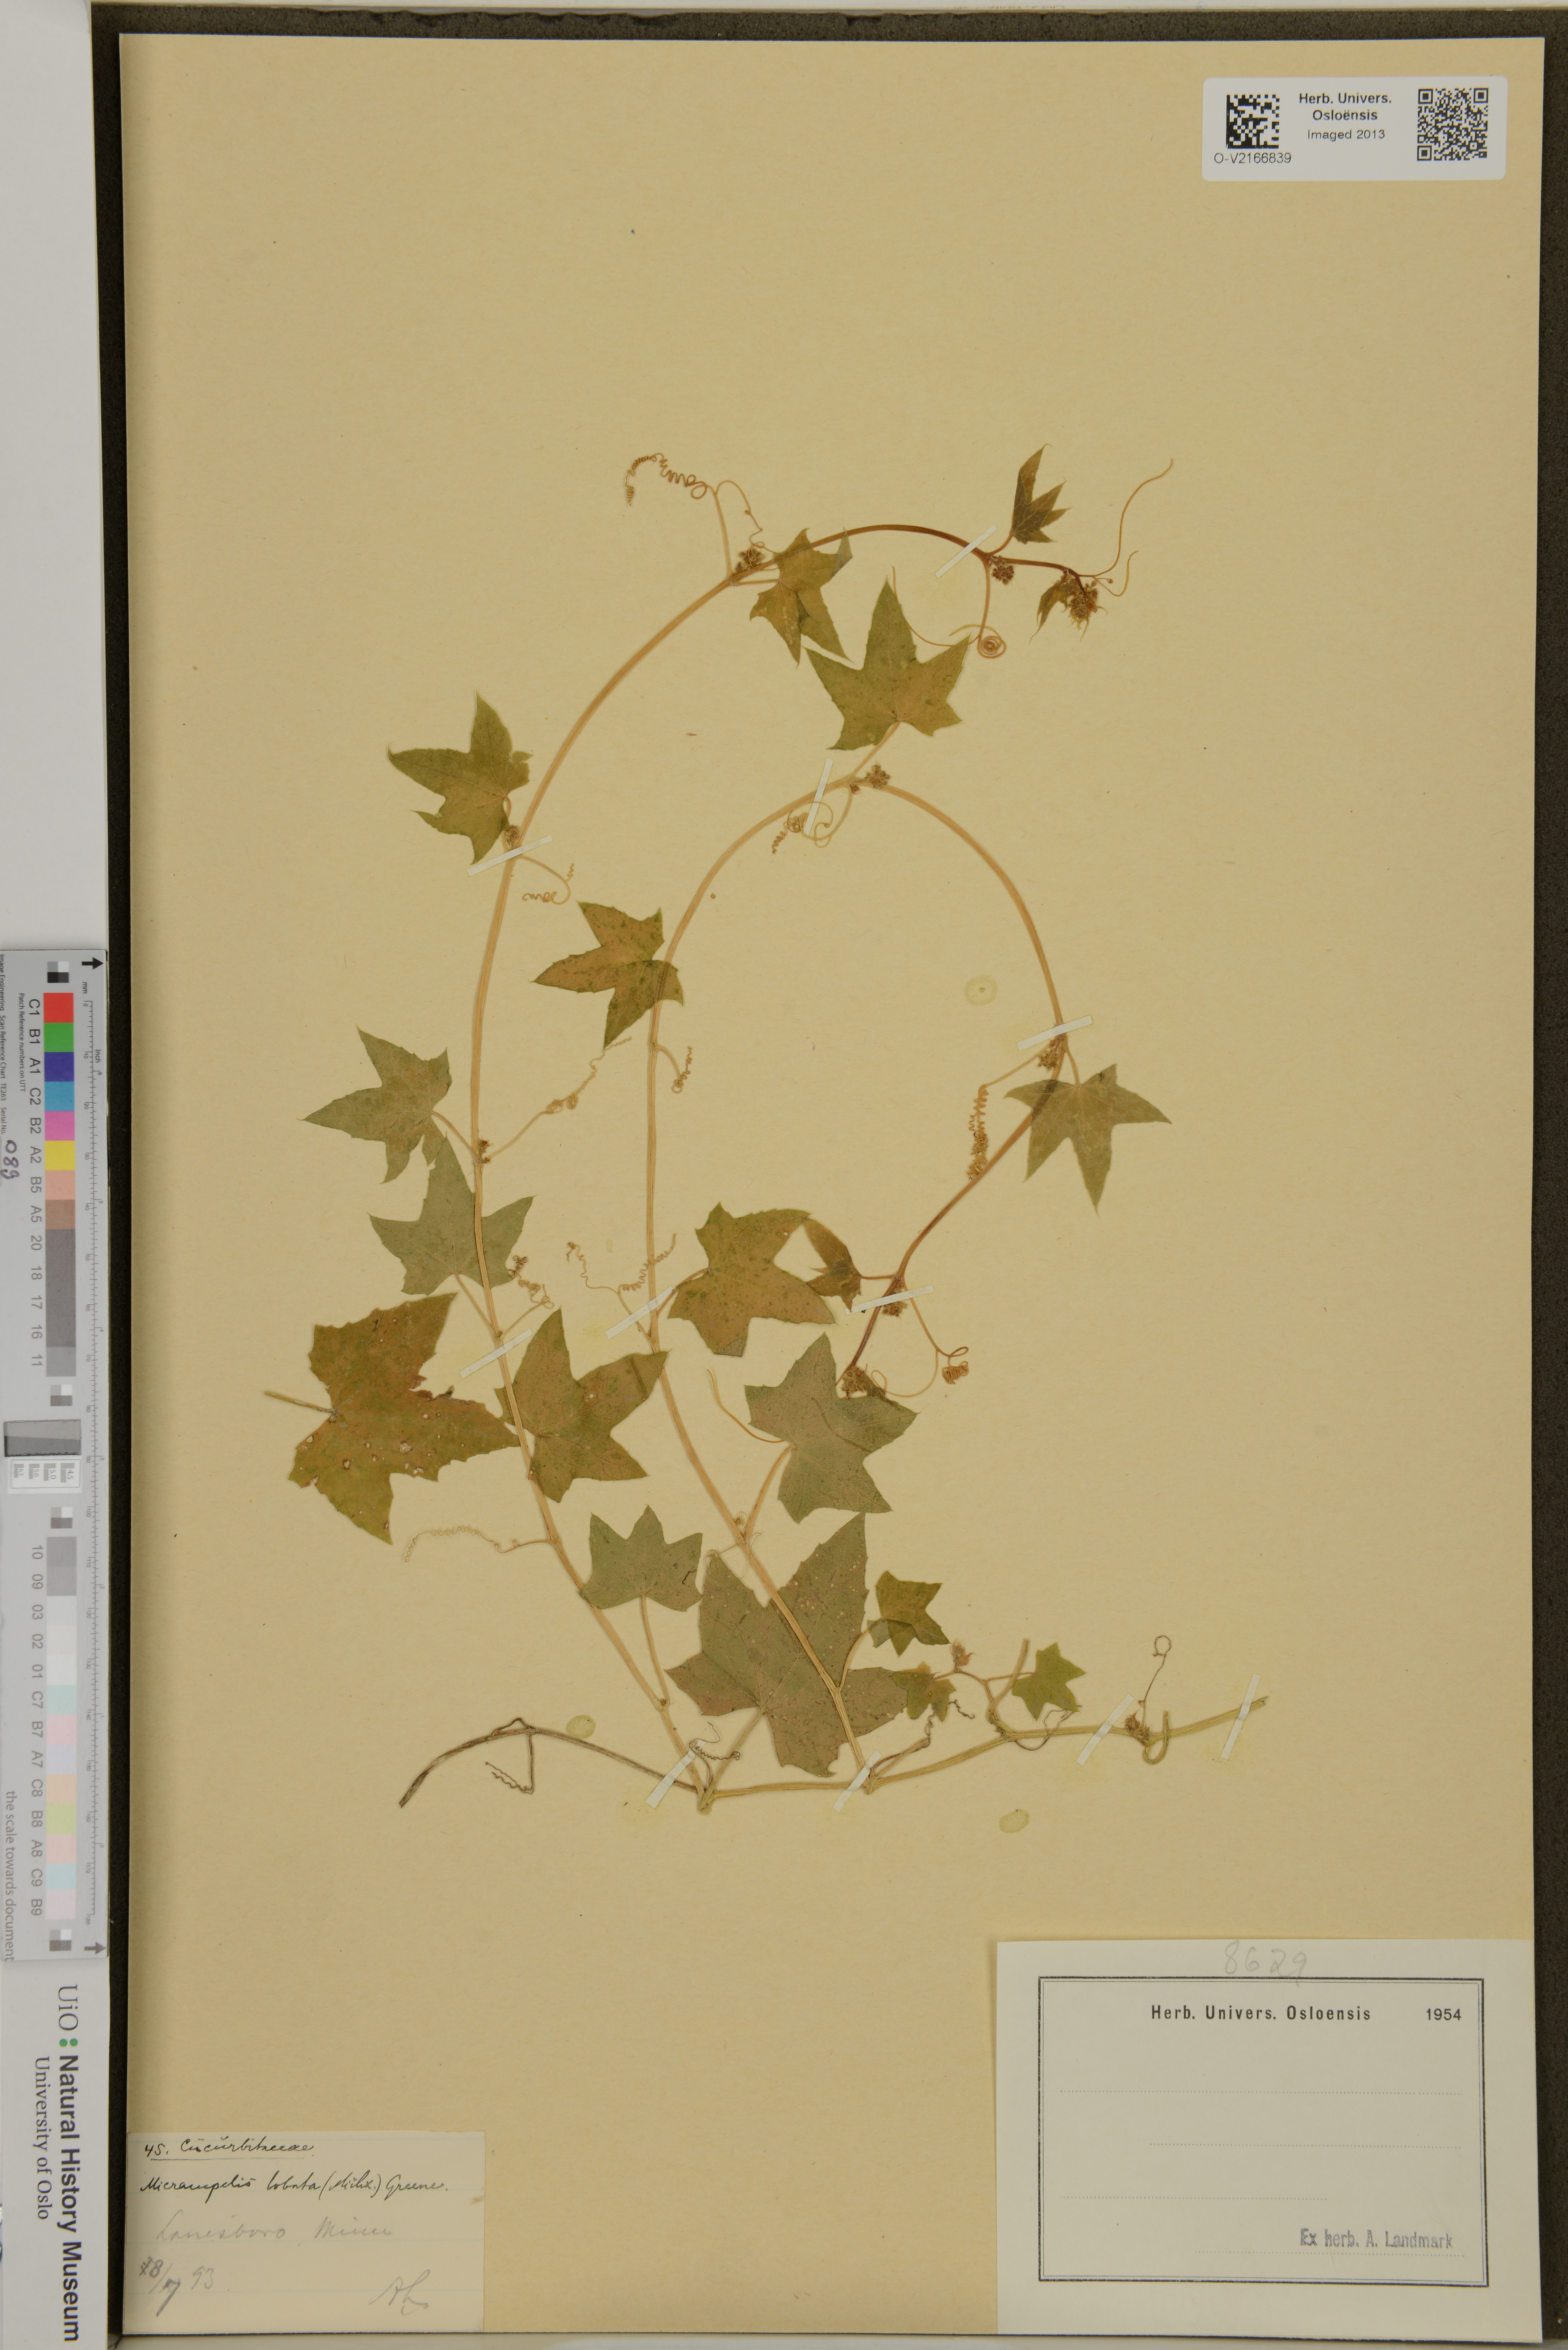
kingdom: Plantae
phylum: Tracheophyta
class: Magnoliopsida
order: Cucurbitales
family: Cucurbitaceae
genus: Echinocystis
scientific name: Echinocystis lobata
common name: Wild cucumber
